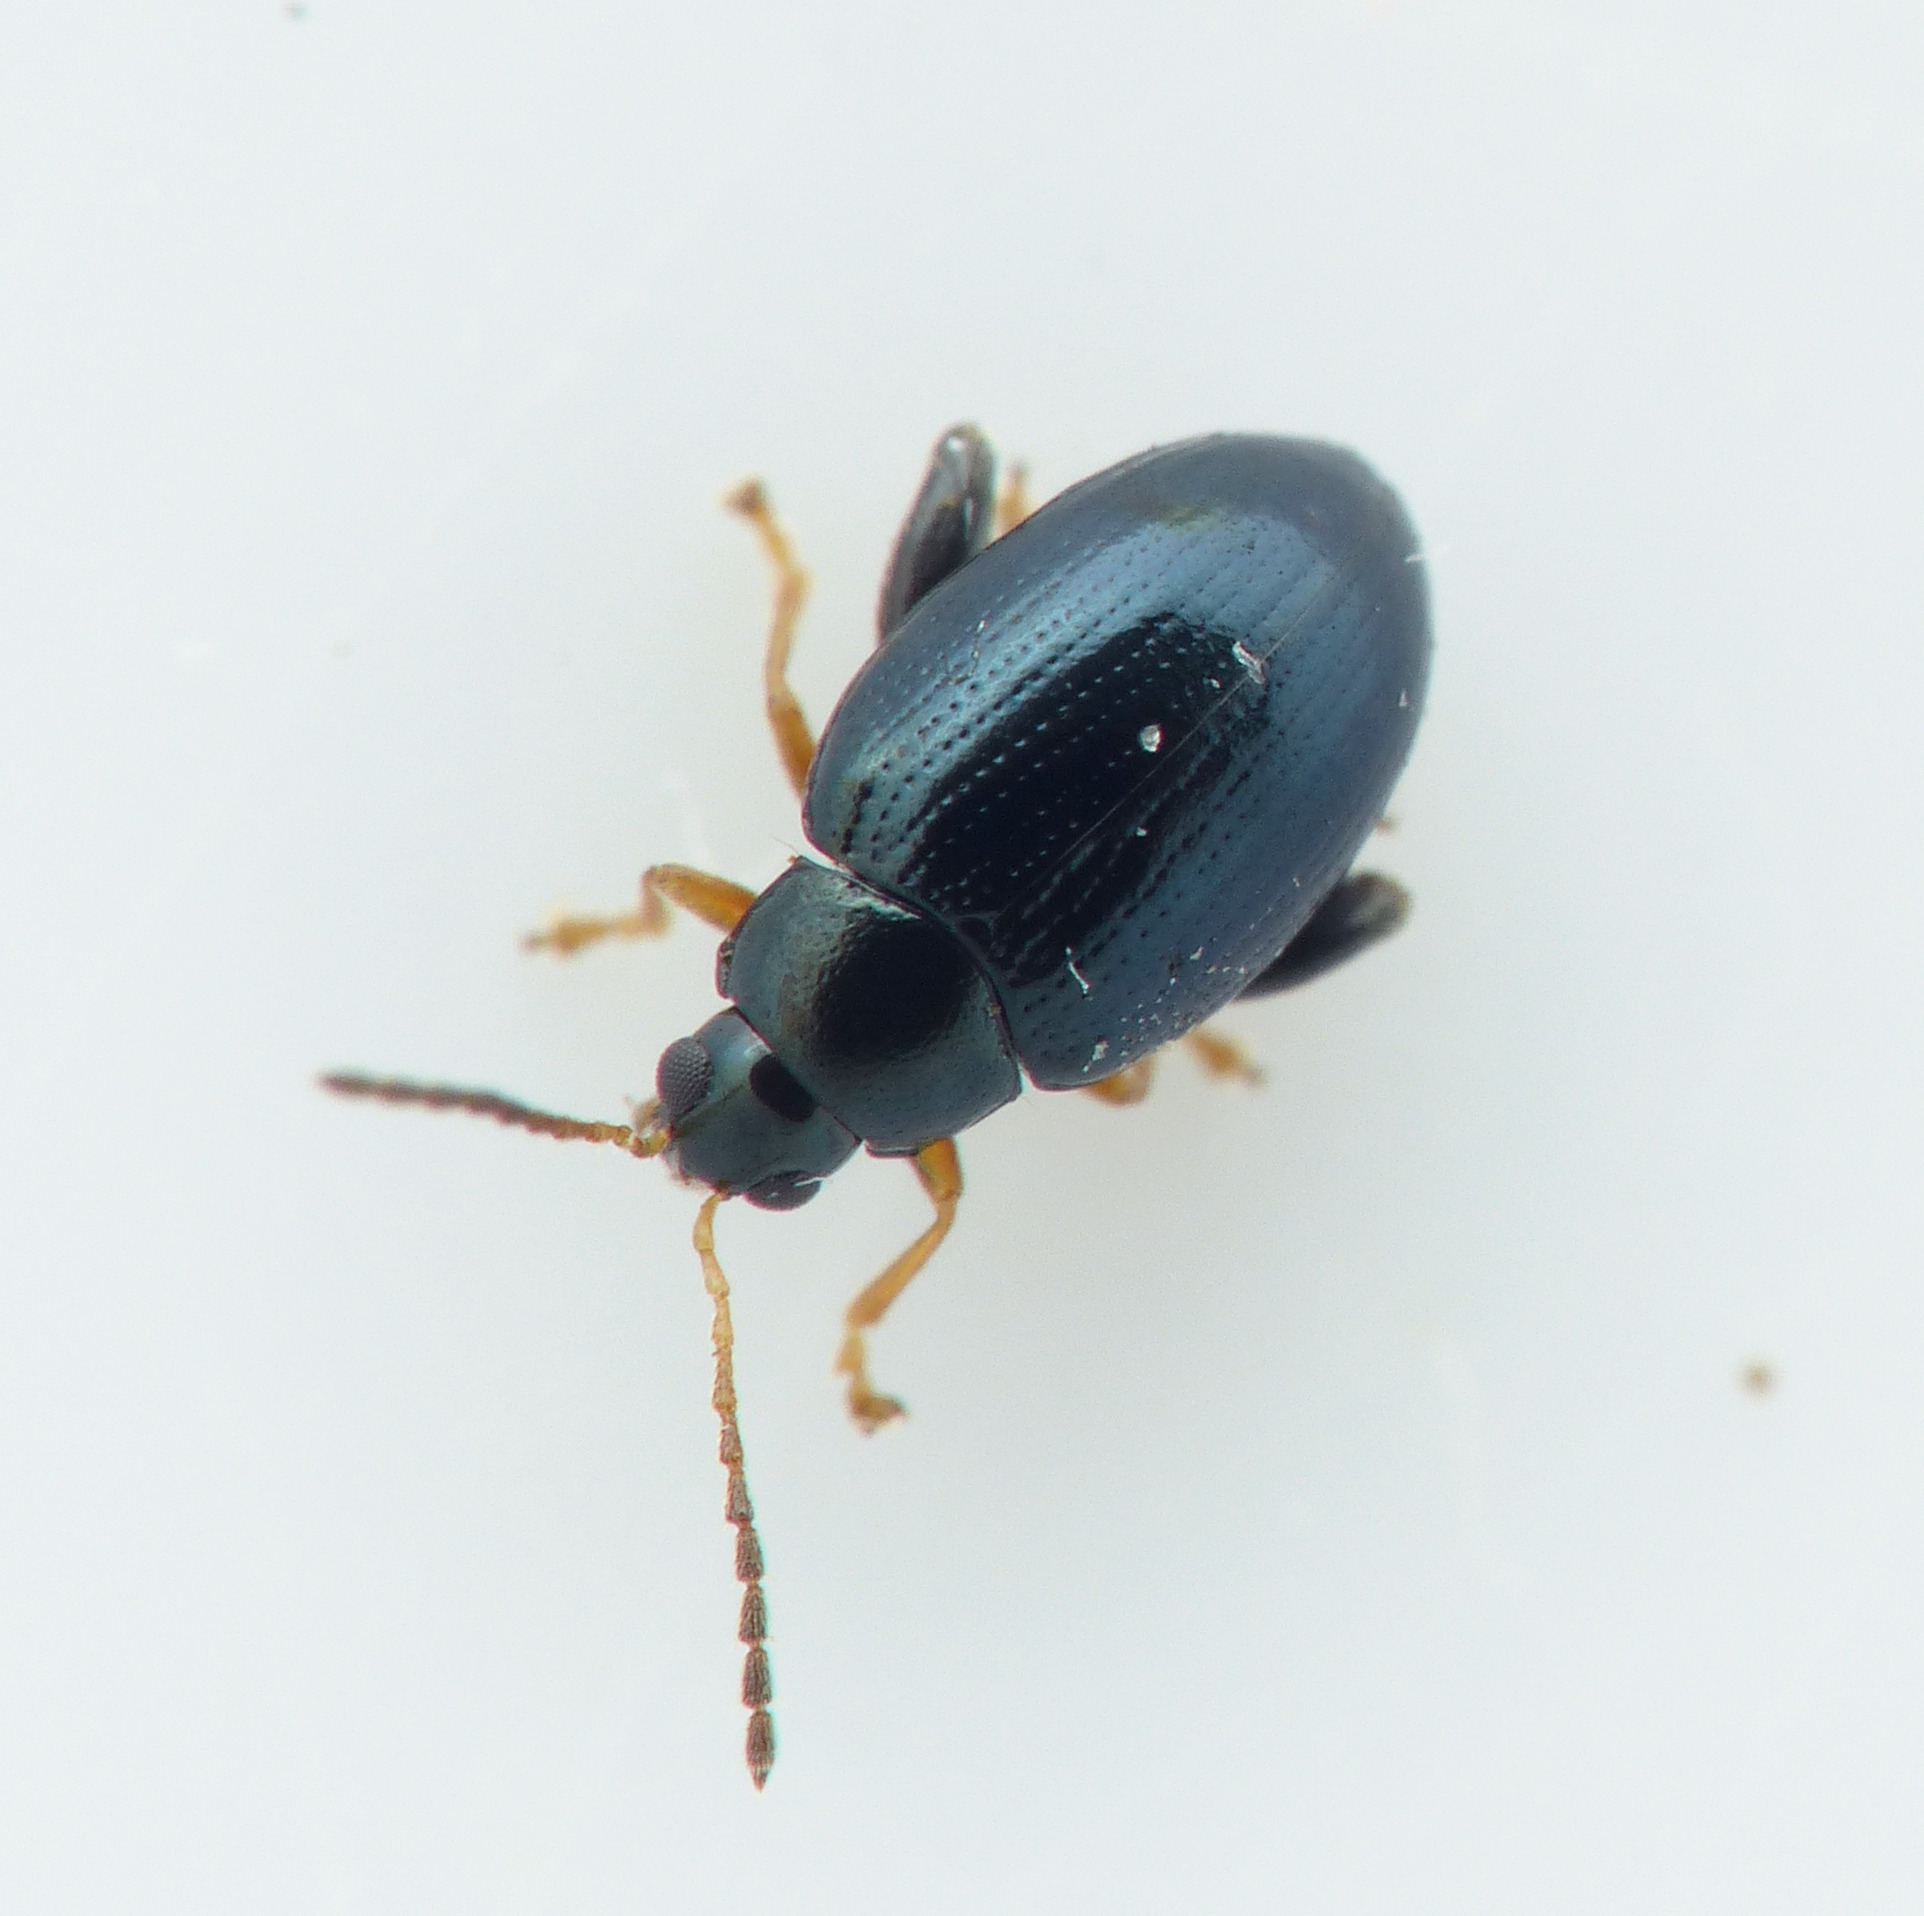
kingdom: Animalia
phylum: Arthropoda
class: Insecta
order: Coleoptera
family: Chrysomelidae
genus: Psylliodes
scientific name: Psylliodes napi
